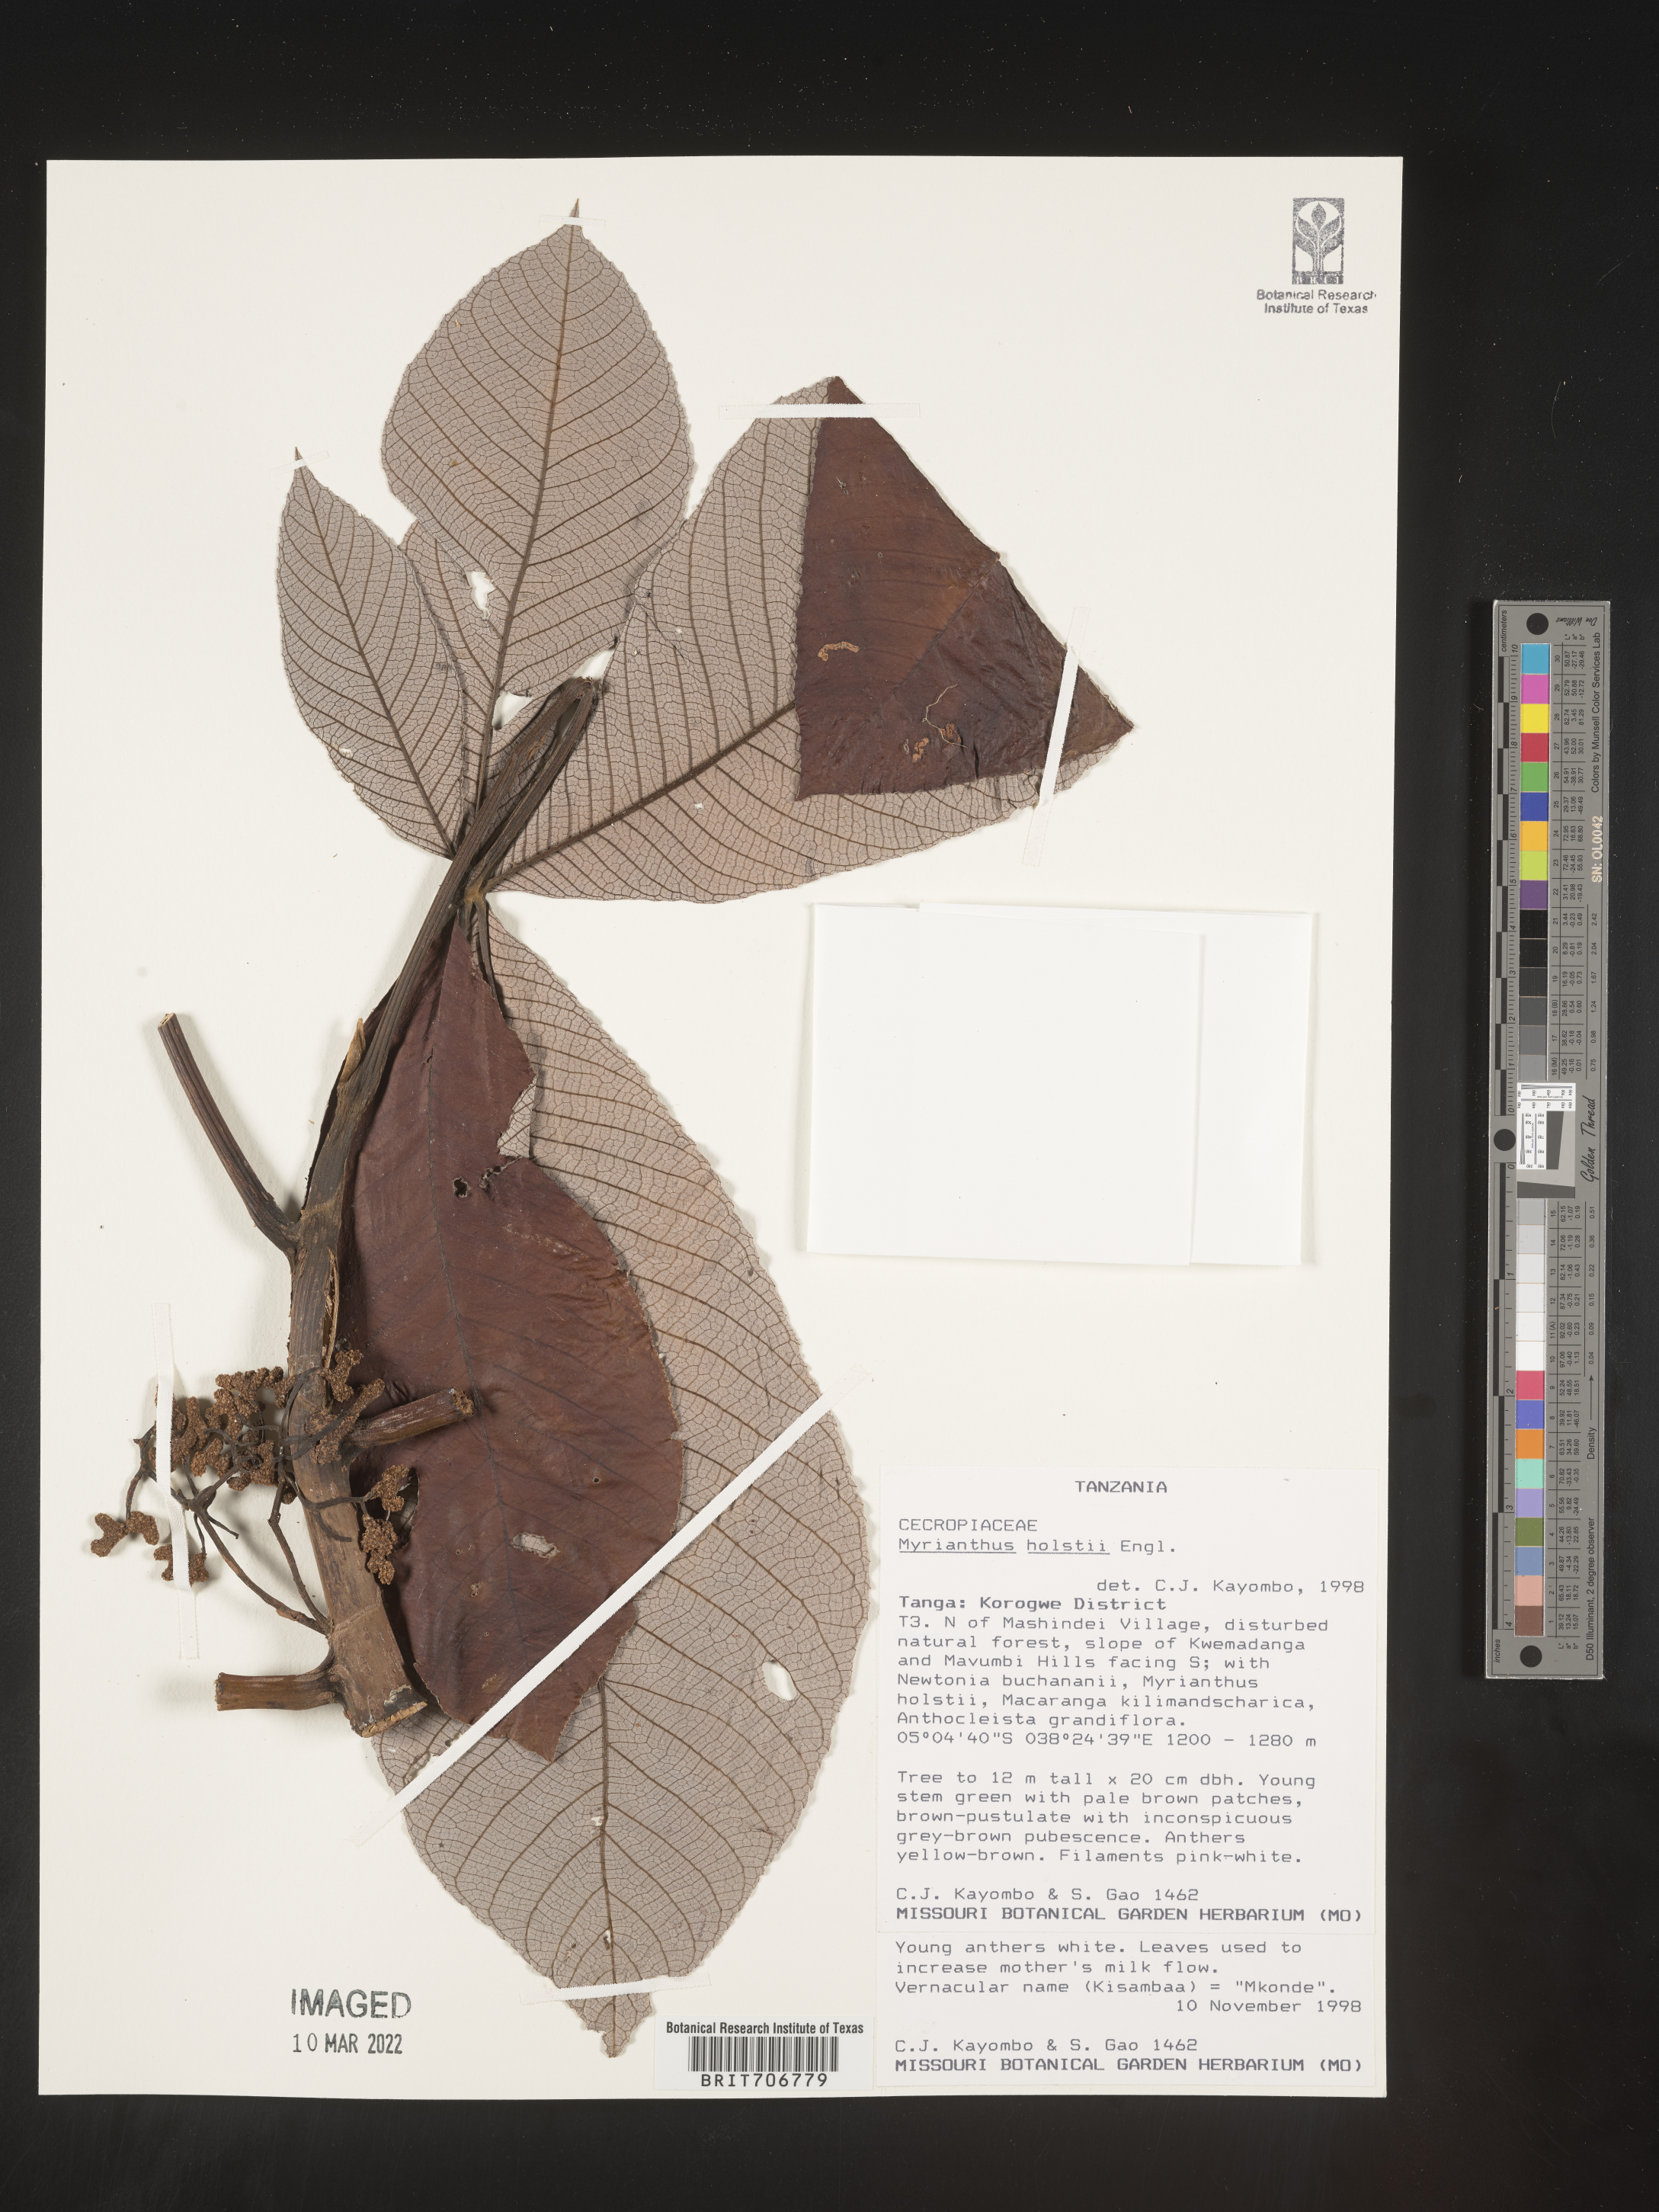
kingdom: Plantae
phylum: Tracheophyta
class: Magnoliopsida
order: Rosales
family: Urticaceae
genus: Myrianthus
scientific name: Myrianthus
